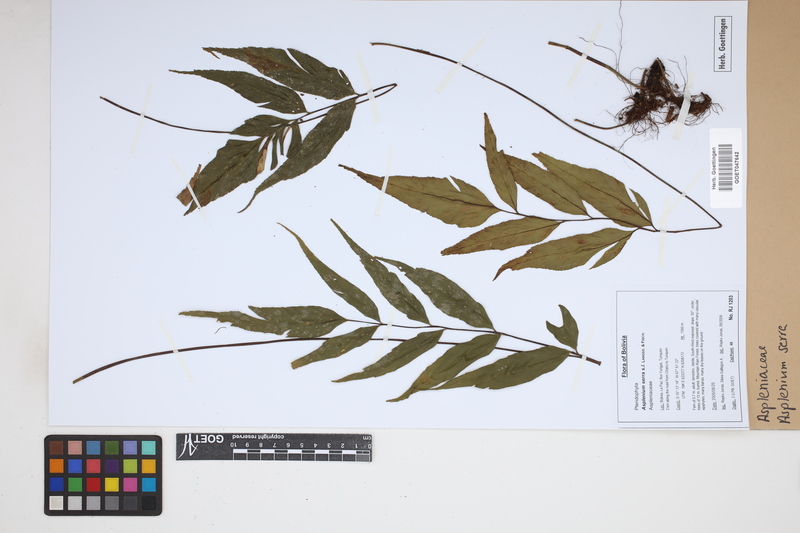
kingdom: Plantae
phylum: Tracheophyta
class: Polypodiopsida
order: Polypodiales
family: Aspleniaceae
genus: Asplenium
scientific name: Asplenium serra
